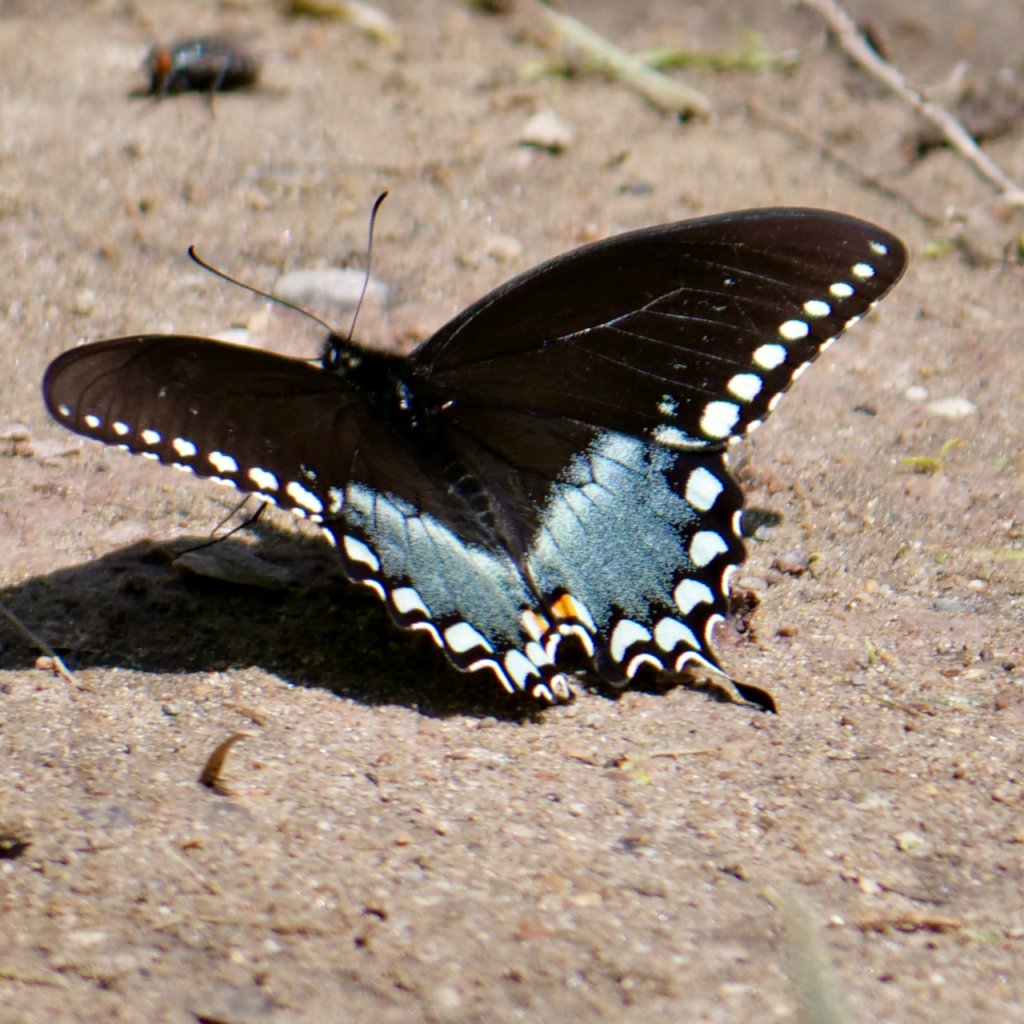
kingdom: Animalia
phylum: Arthropoda
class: Insecta
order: Lepidoptera
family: Papilionidae
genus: Pterourus
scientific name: Pterourus troilus
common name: Spicebush Swallowtail
